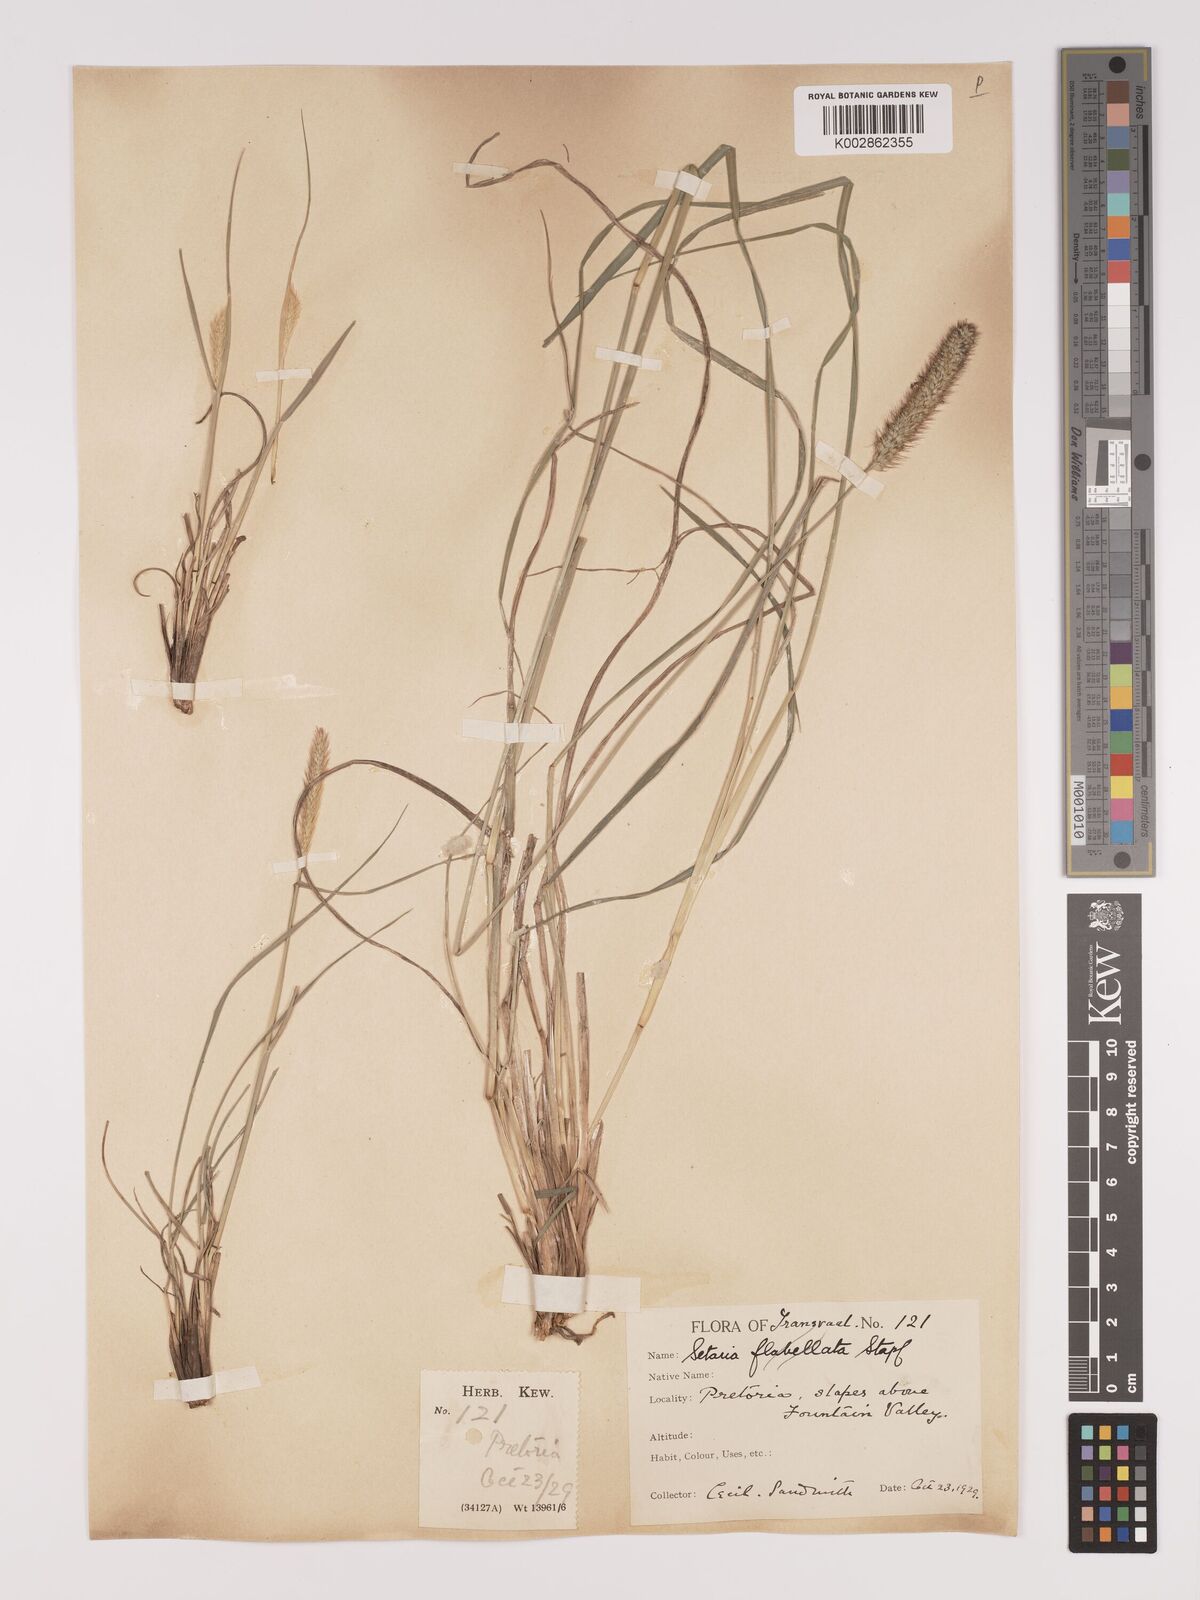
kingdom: Plantae
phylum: Tracheophyta
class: Liliopsida
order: Poales
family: Poaceae
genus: Setaria
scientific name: Setaria sphacelata
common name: African bristlegrass
